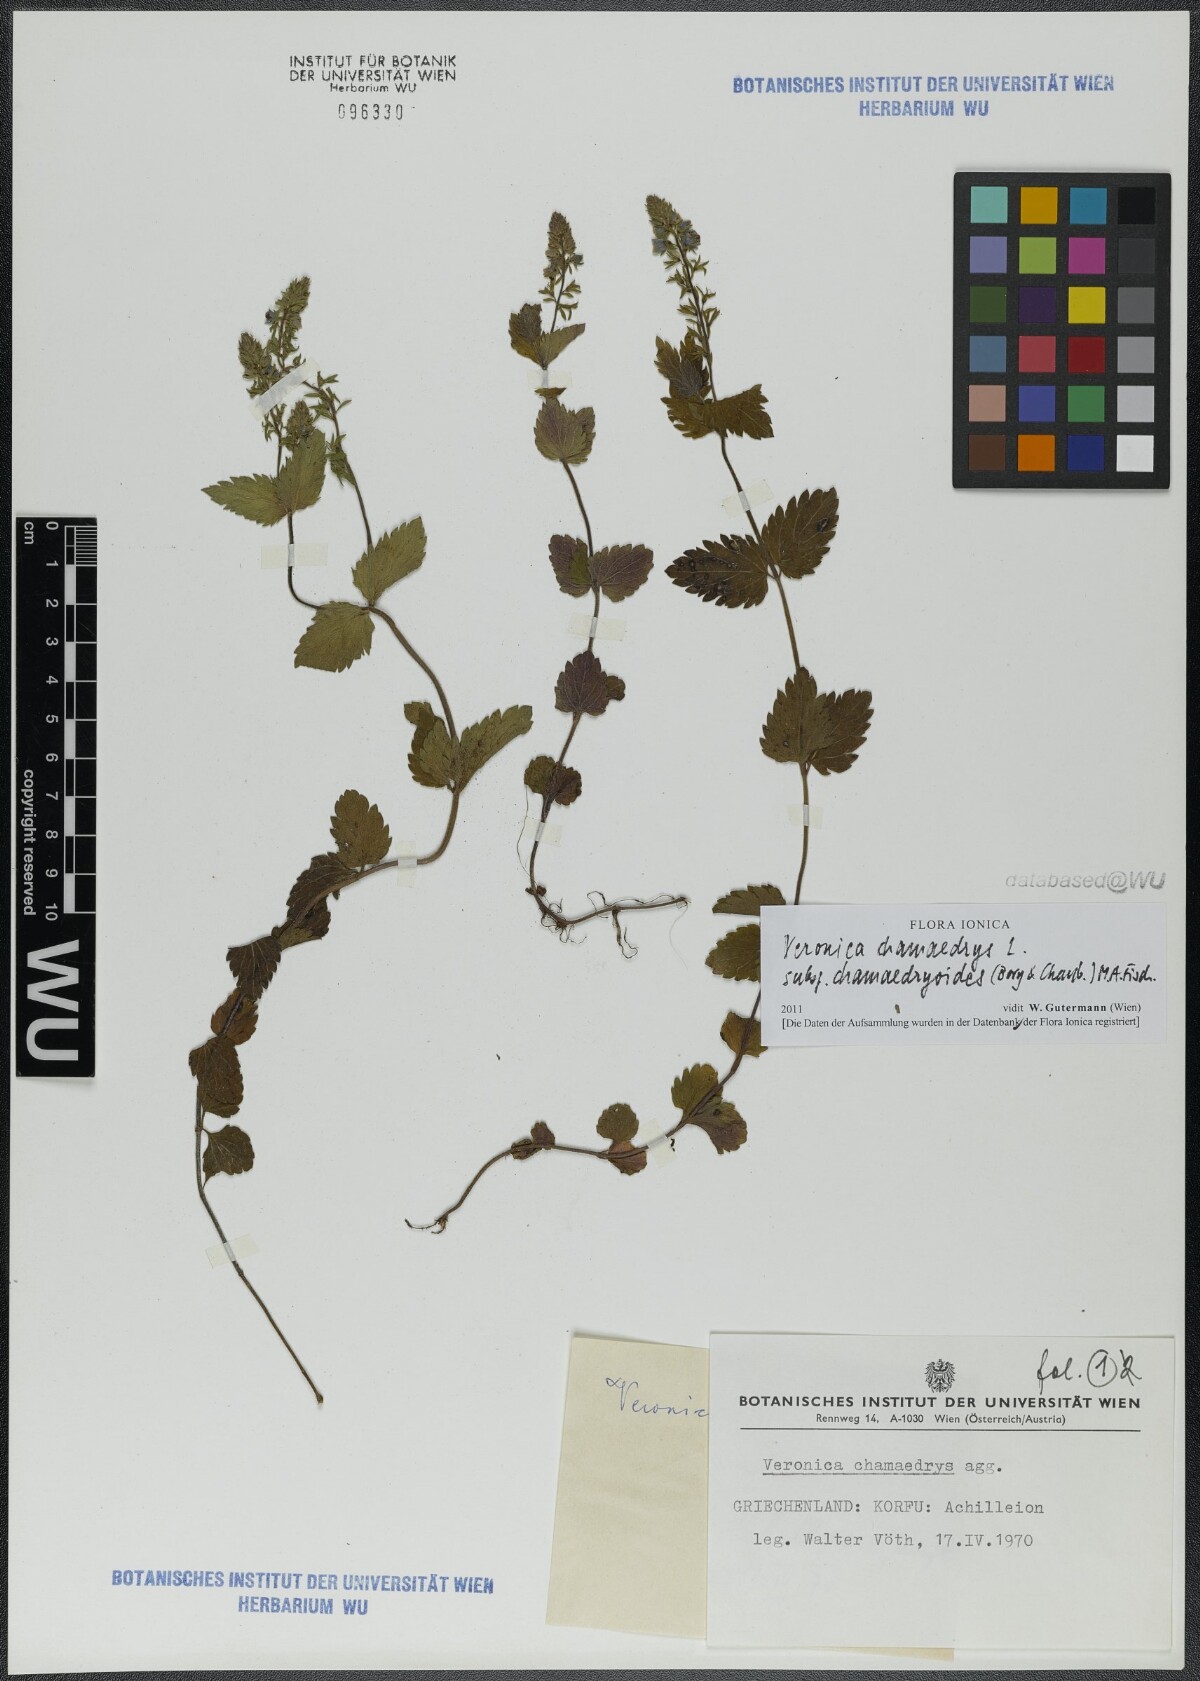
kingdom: Plantae
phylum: Tracheophyta
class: Magnoliopsida
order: Lamiales
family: Plantaginaceae
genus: Veronica
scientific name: Veronica chamaedrys
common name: Germander speedwell
